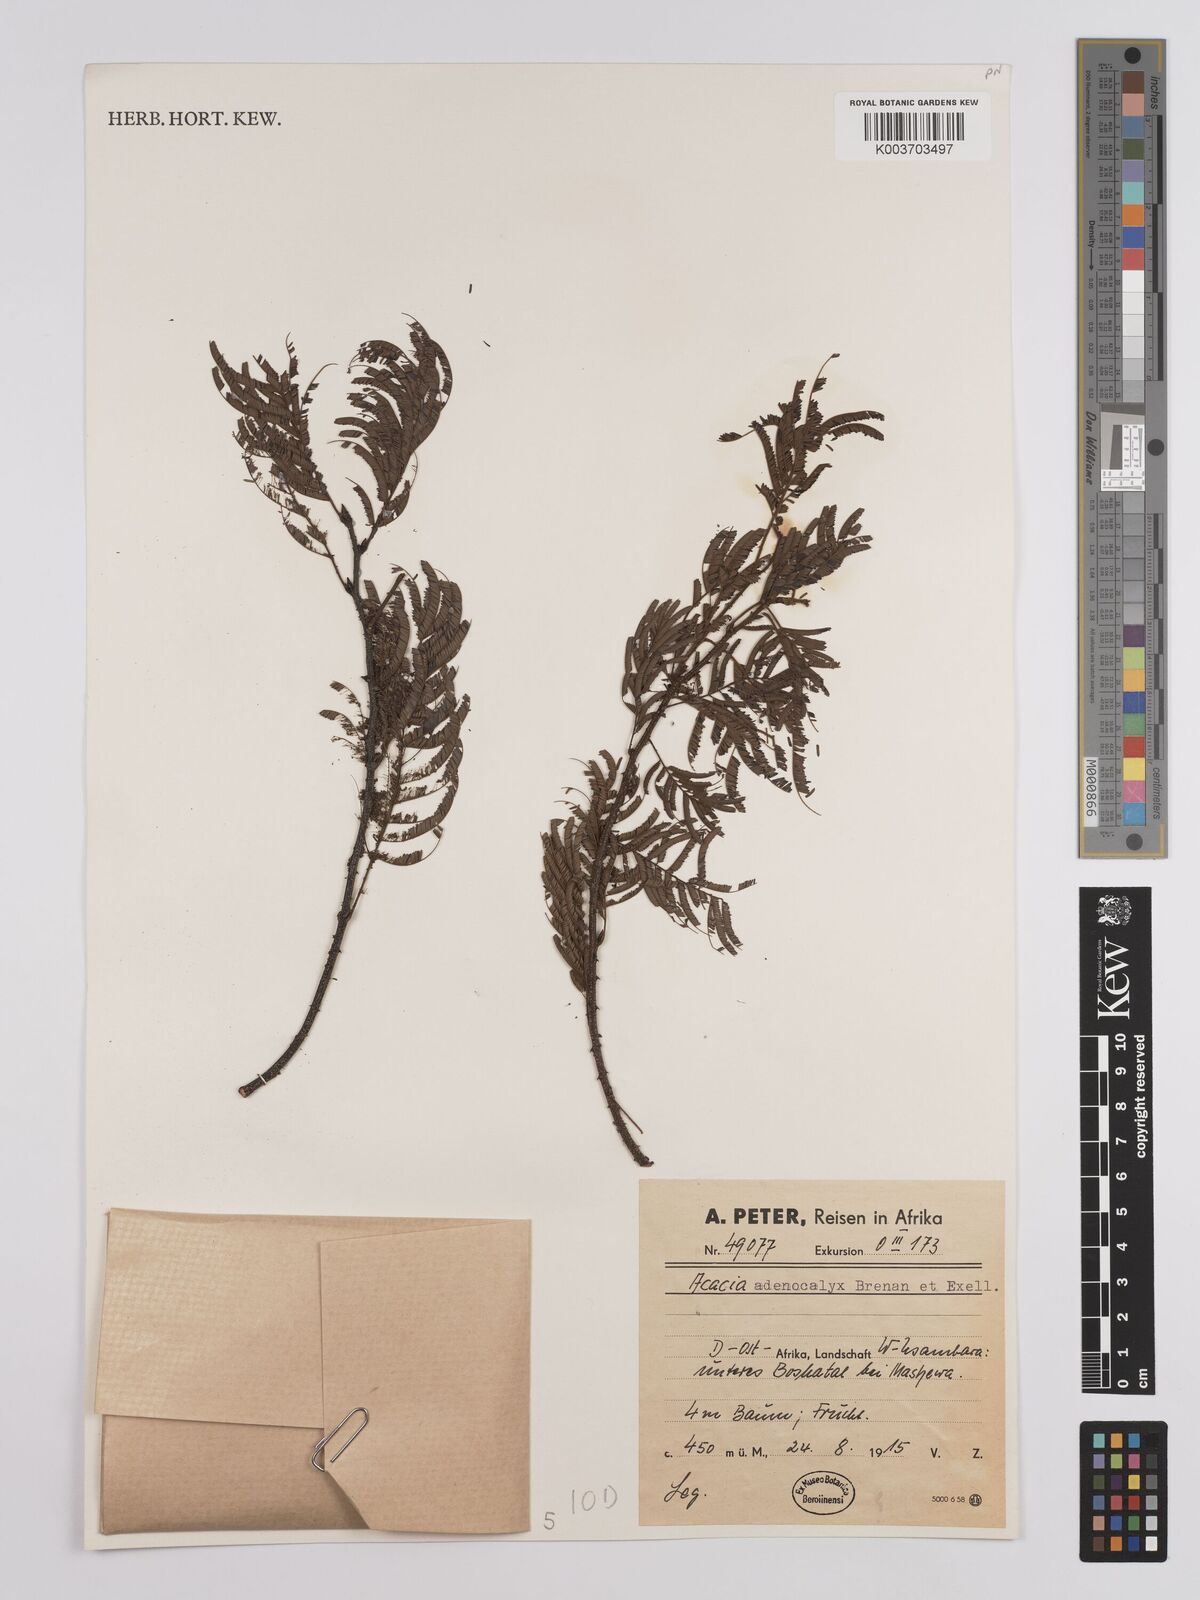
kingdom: Plantae
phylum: Tracheophyta
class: Magnoliopsida
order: Fabales
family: Fabaceae
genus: Senegalia
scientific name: Senegalia adenocalyx
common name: Pfurura
